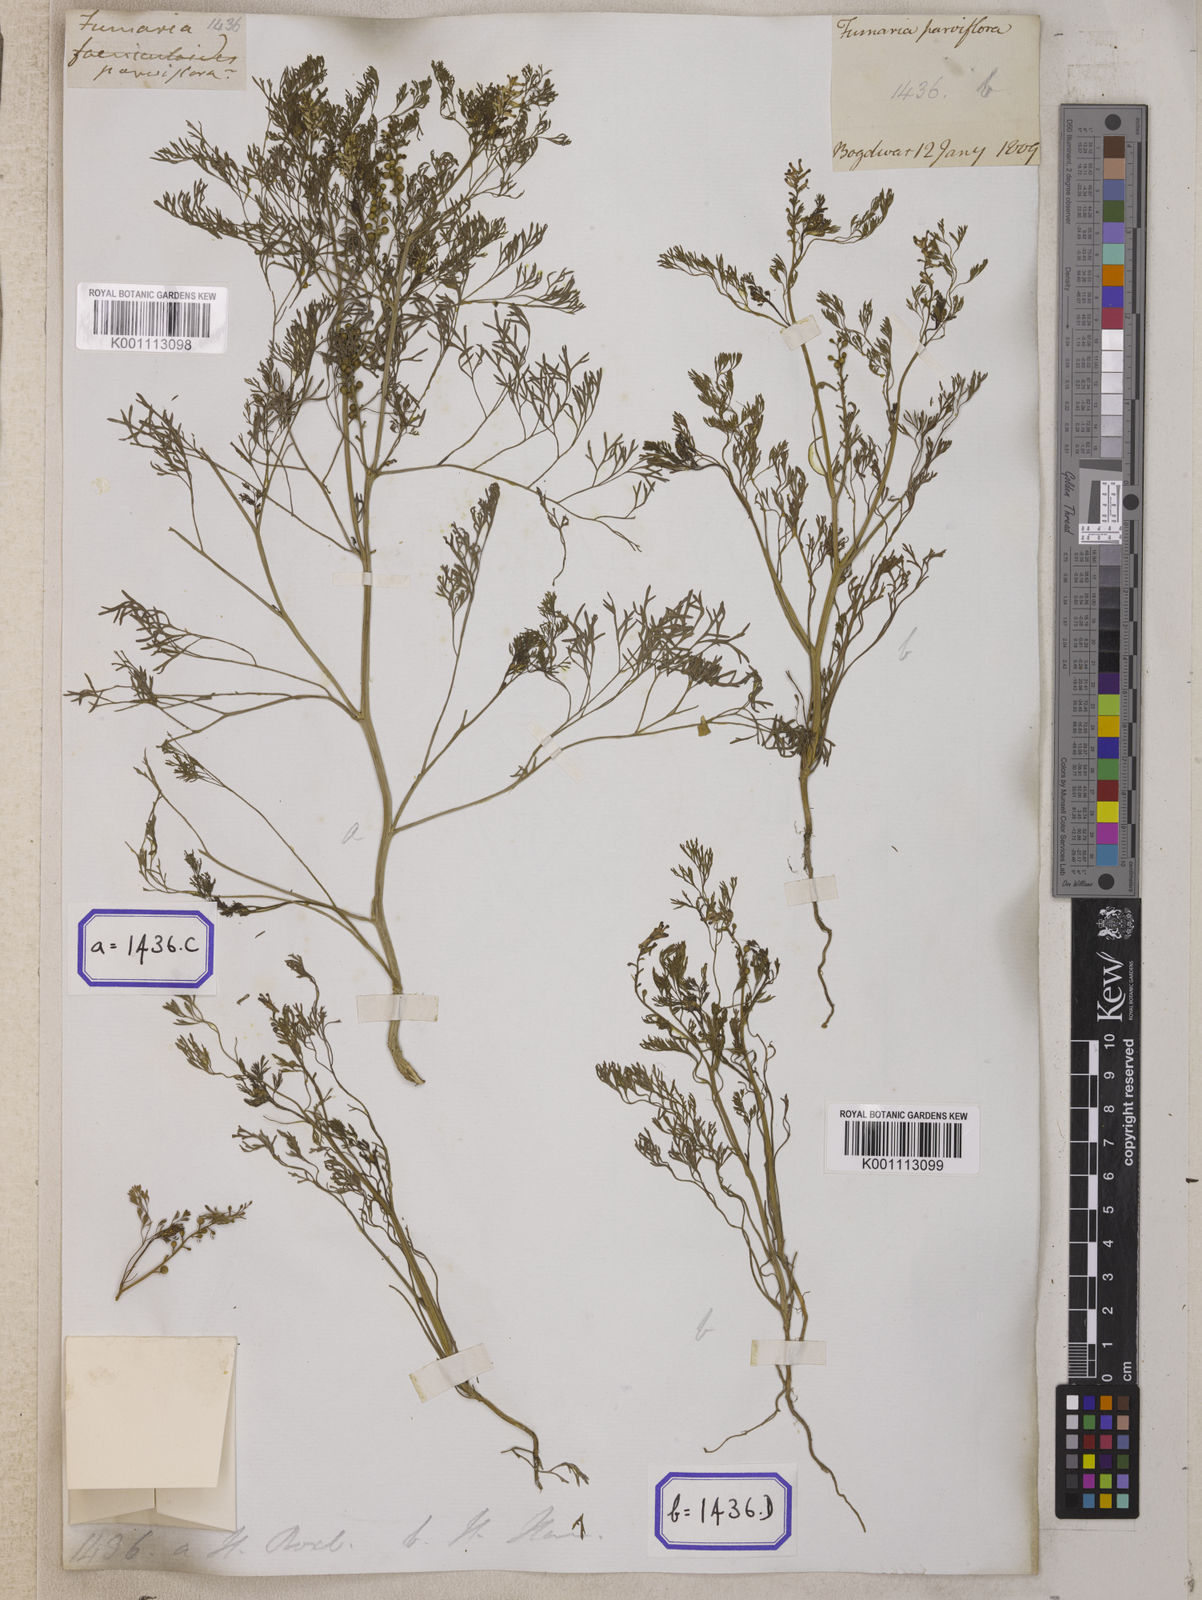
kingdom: Plantae
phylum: Tracheophyta
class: Magnoliopsida
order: Ranunculales
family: Papaveraceae
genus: Fumaria
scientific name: Fumaria parviflora
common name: Fine-leaved fumitory
